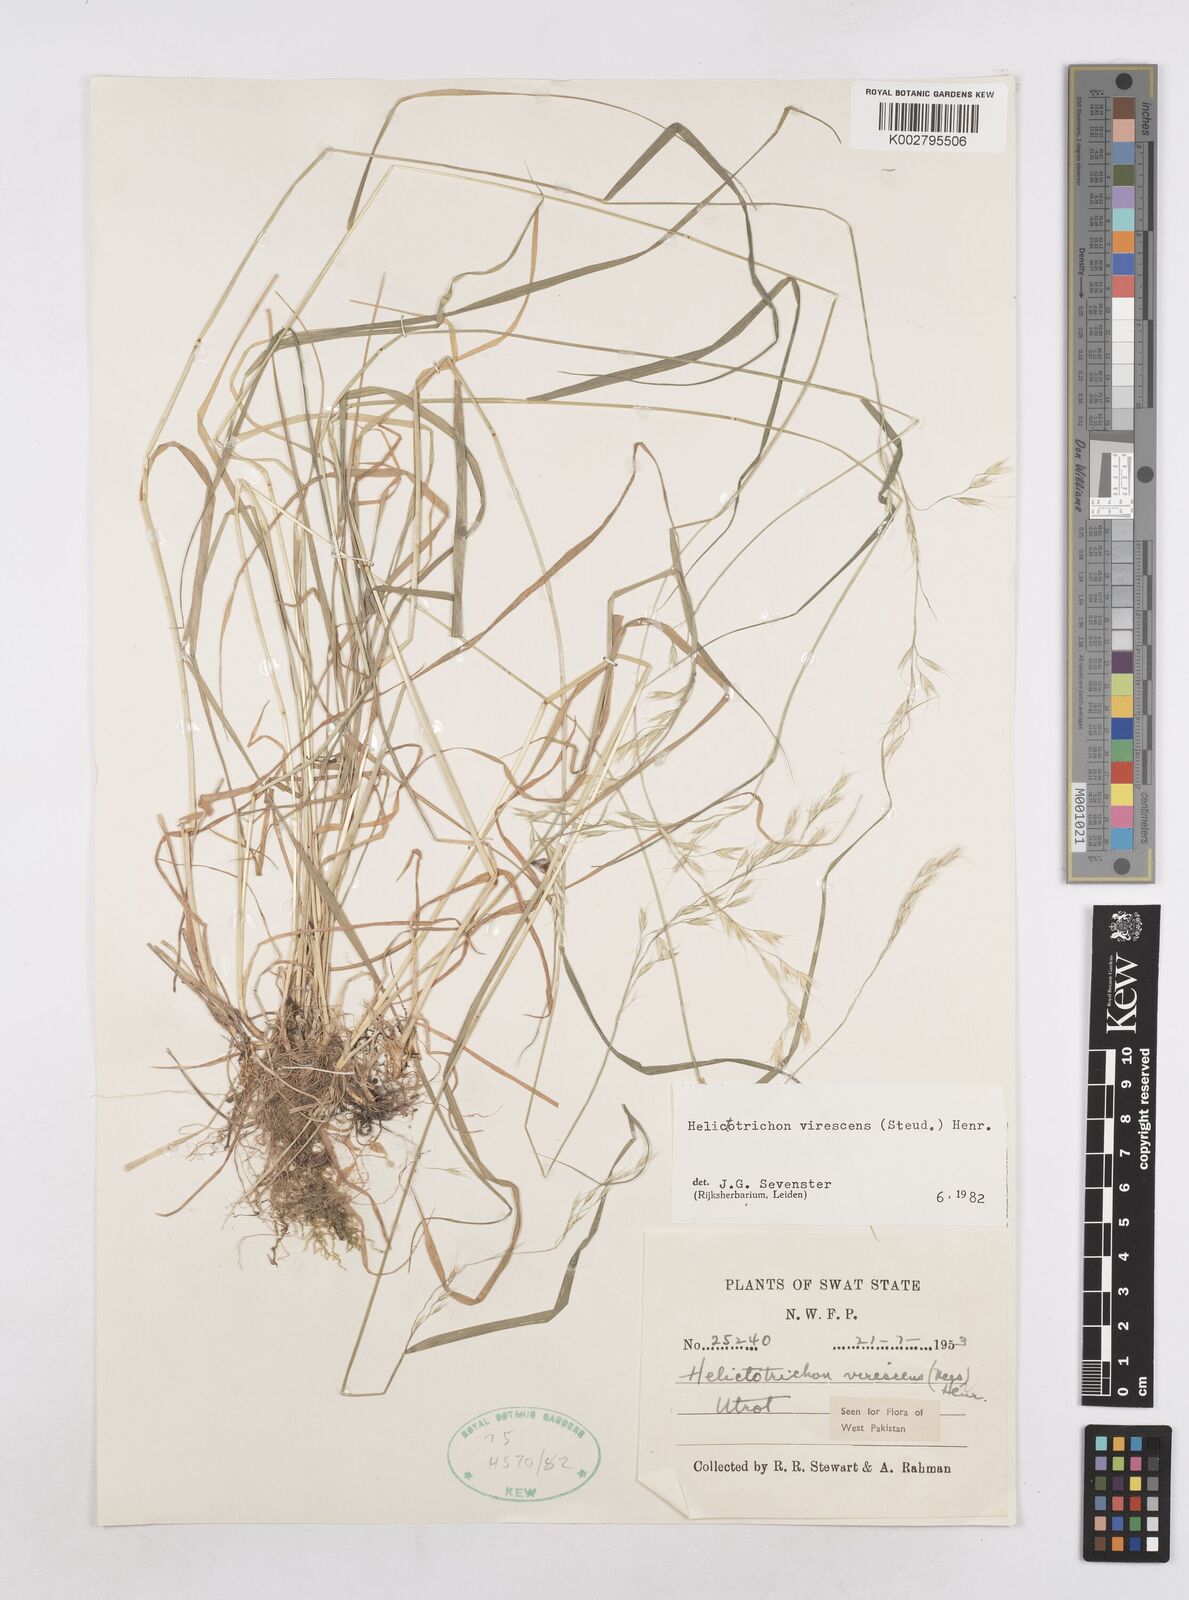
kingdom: Plantae
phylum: Tracheophyta
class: Liliopsida
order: Poales
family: Poaceae
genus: Trisetopsis
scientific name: Trisetopsis junghuhnii
